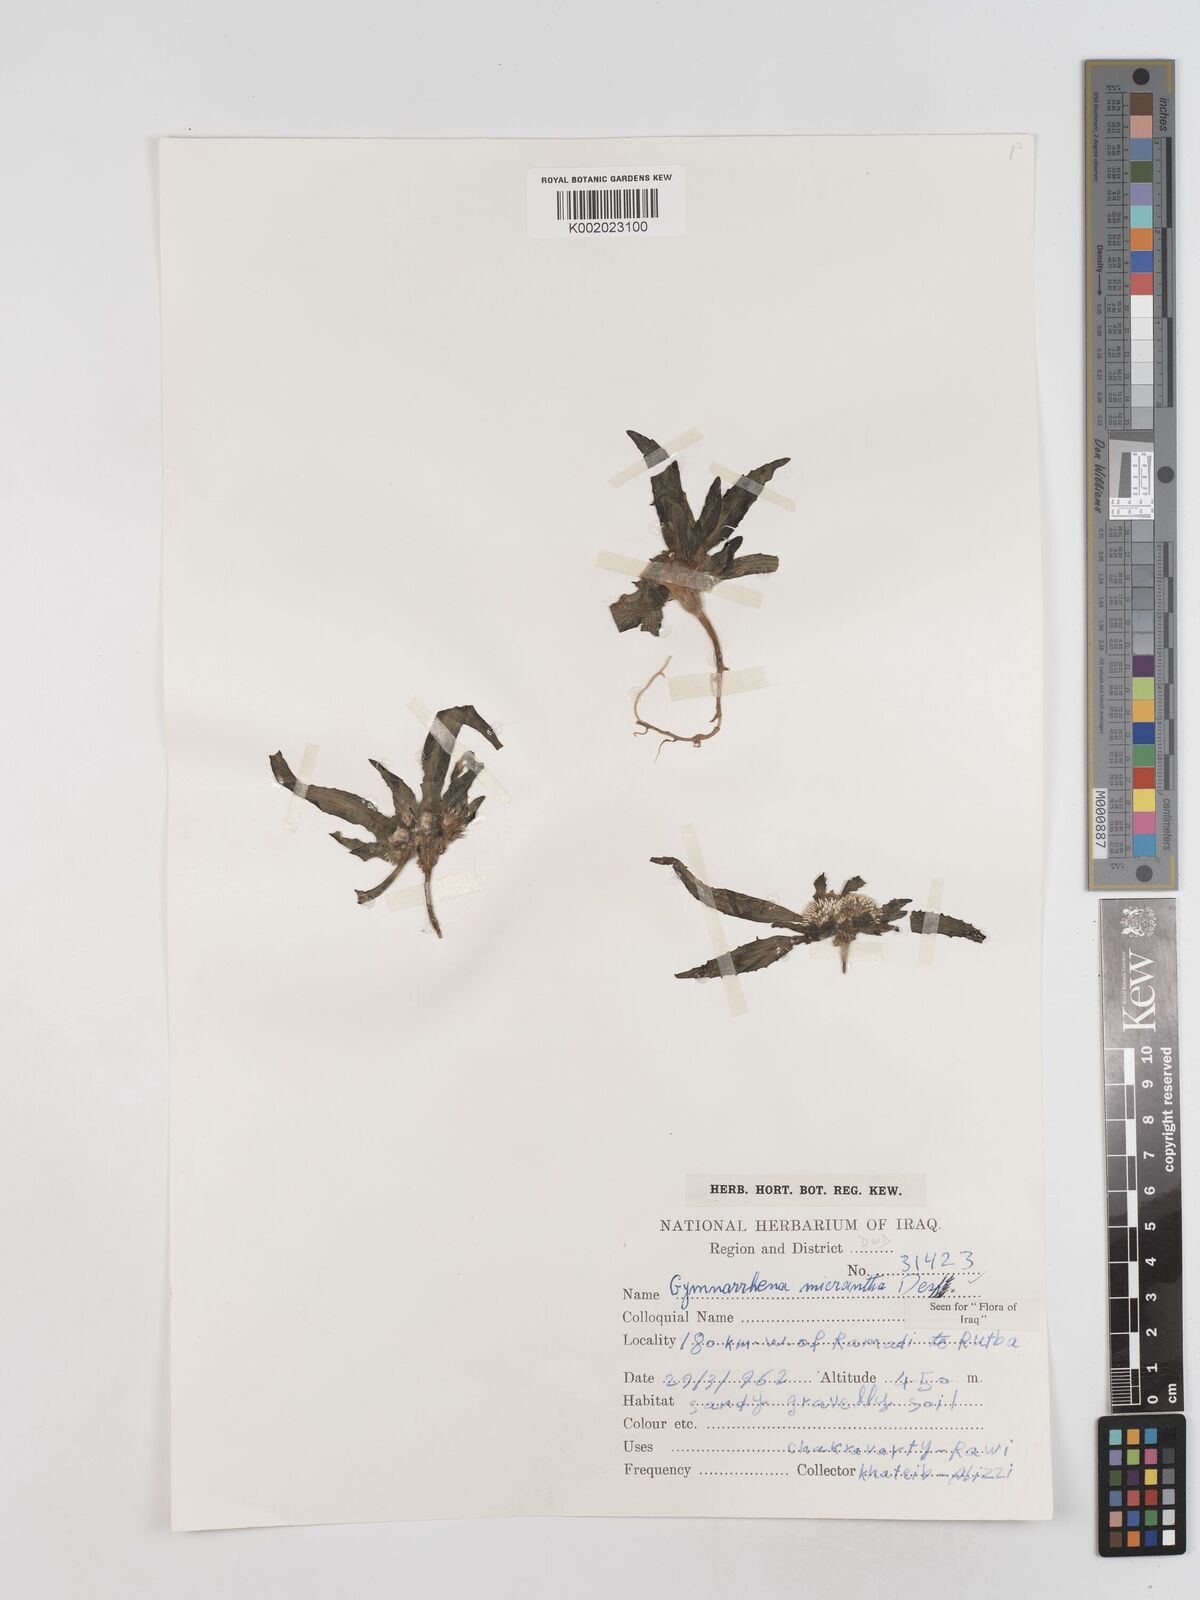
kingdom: Plantae
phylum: Tracheophyta
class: Magnoliopsida
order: Asterales
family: Asteraceae
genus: Gymnarrhena
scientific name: Gymnarrhena micrantha
